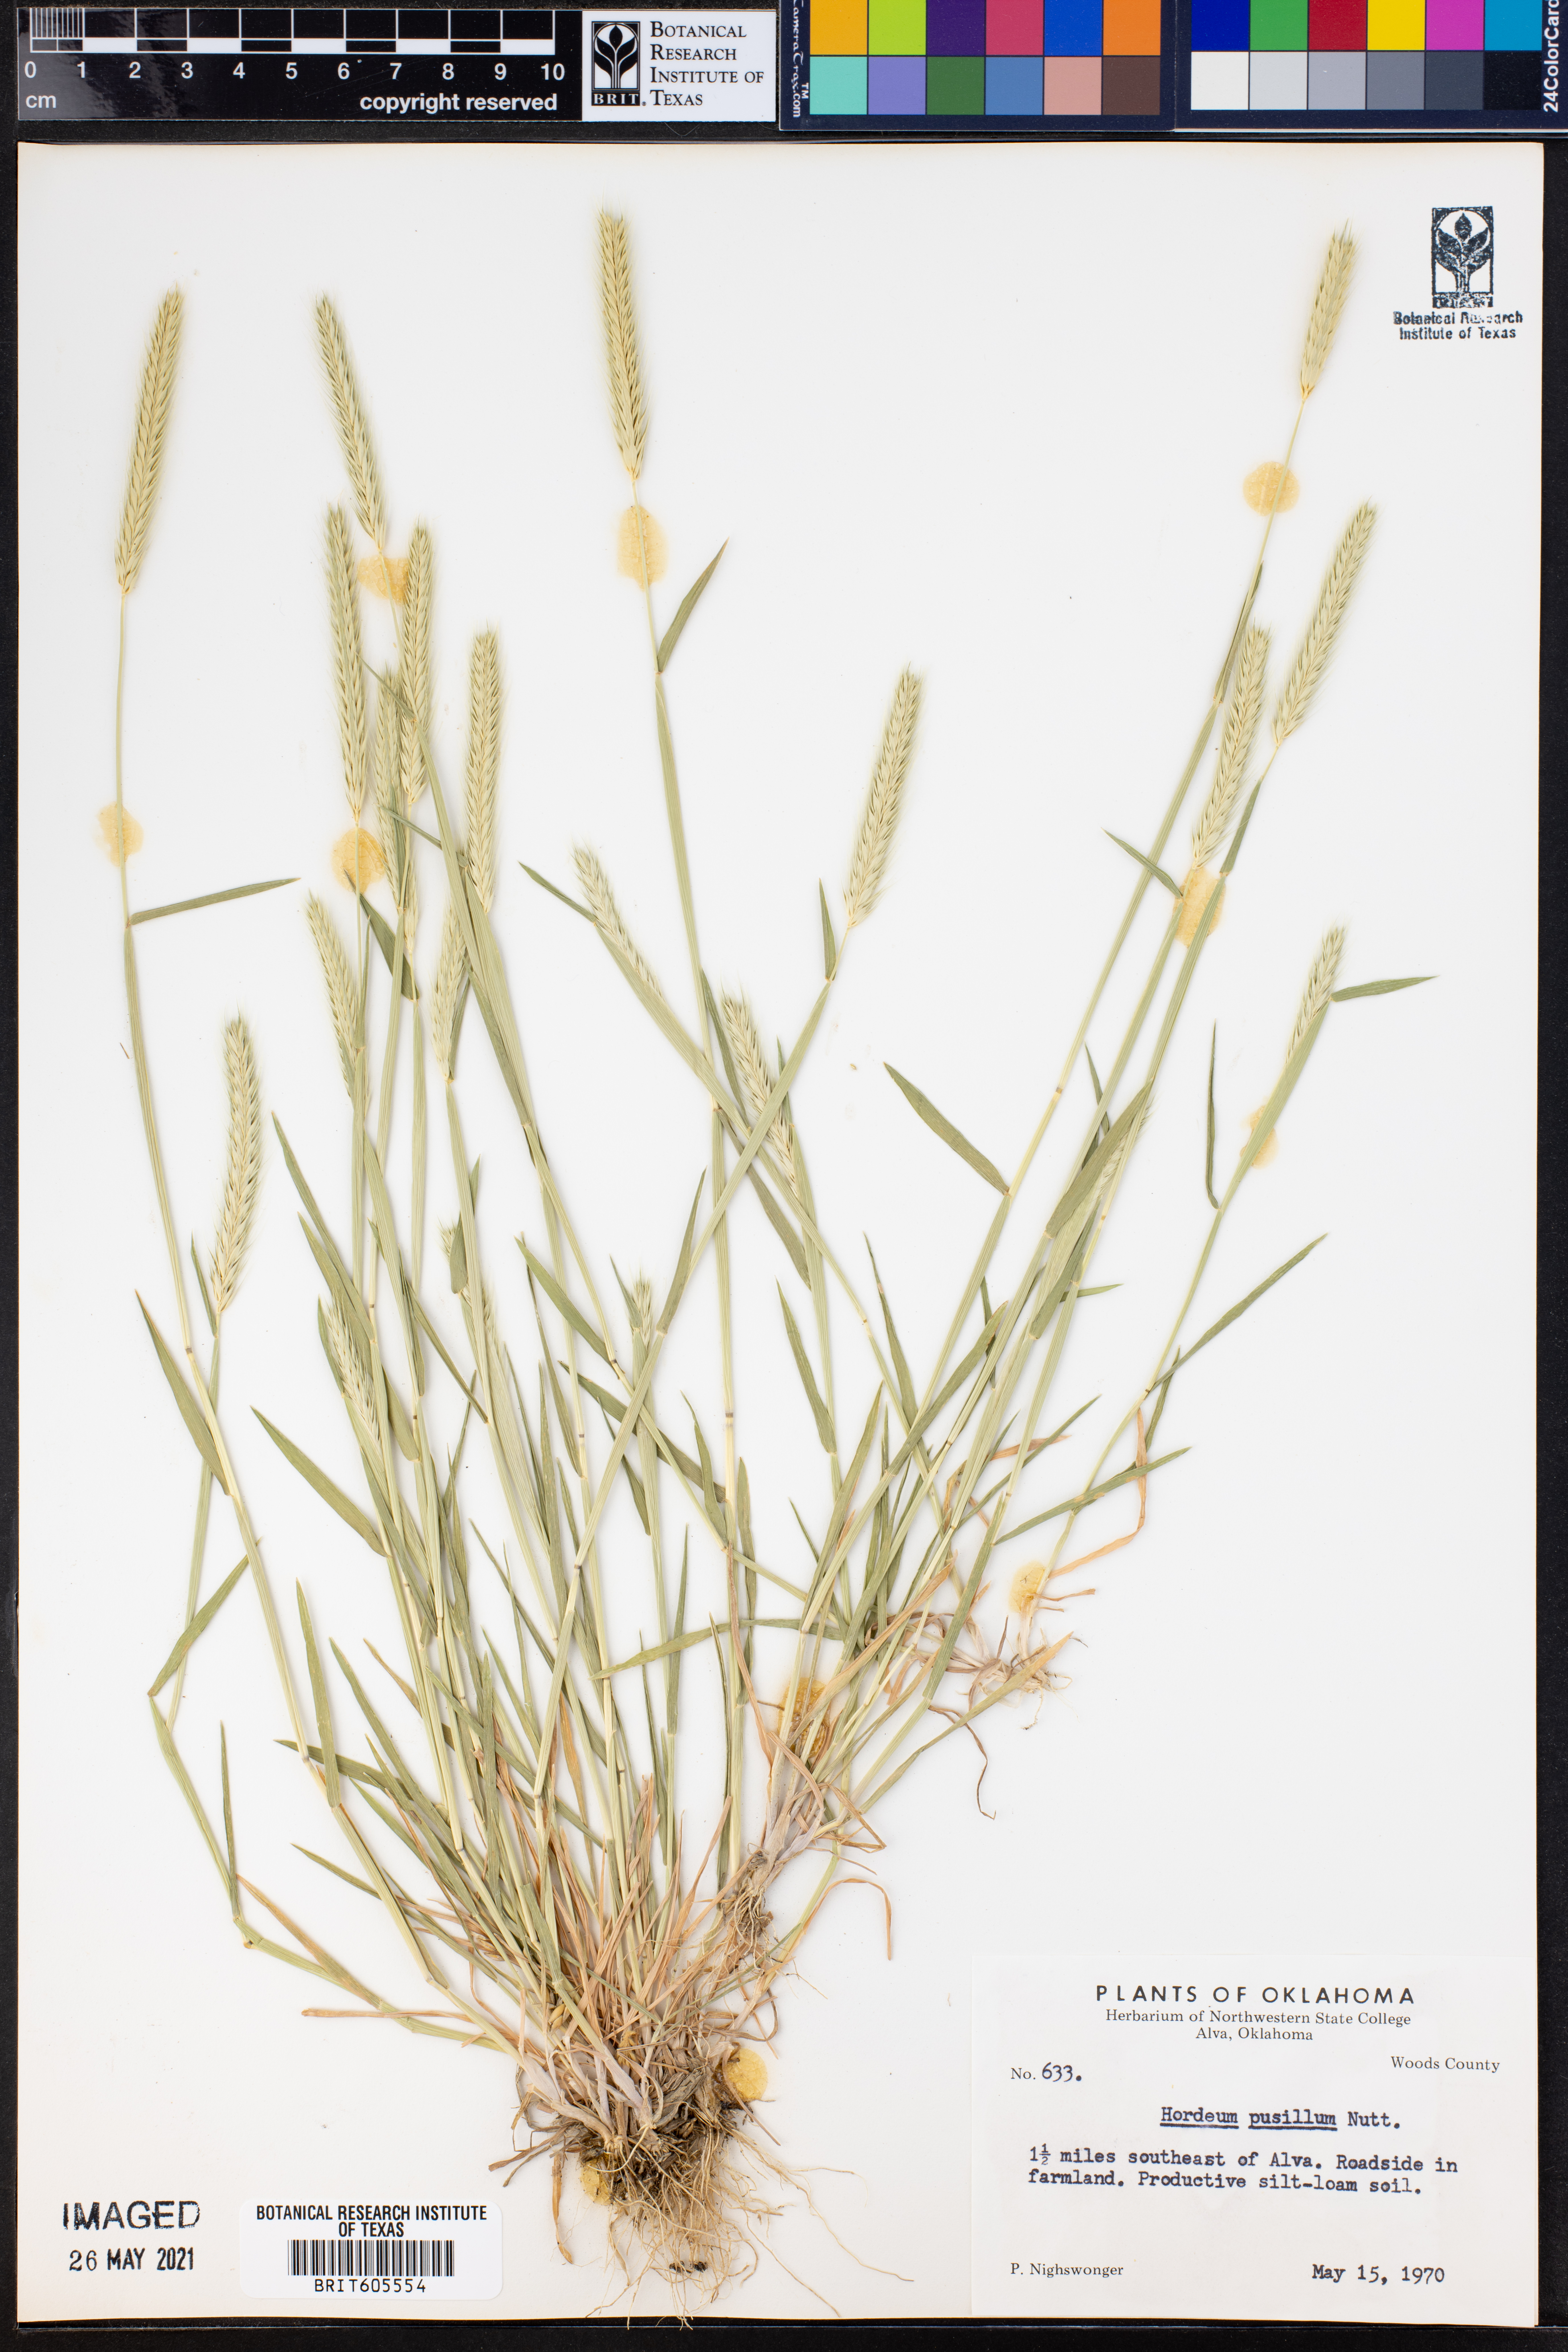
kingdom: Plantae
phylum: Tracheophyta
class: Liliopsida
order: Poales
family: Poaceae
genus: Hordeum
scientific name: Hordeum pusillum
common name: Little barley
